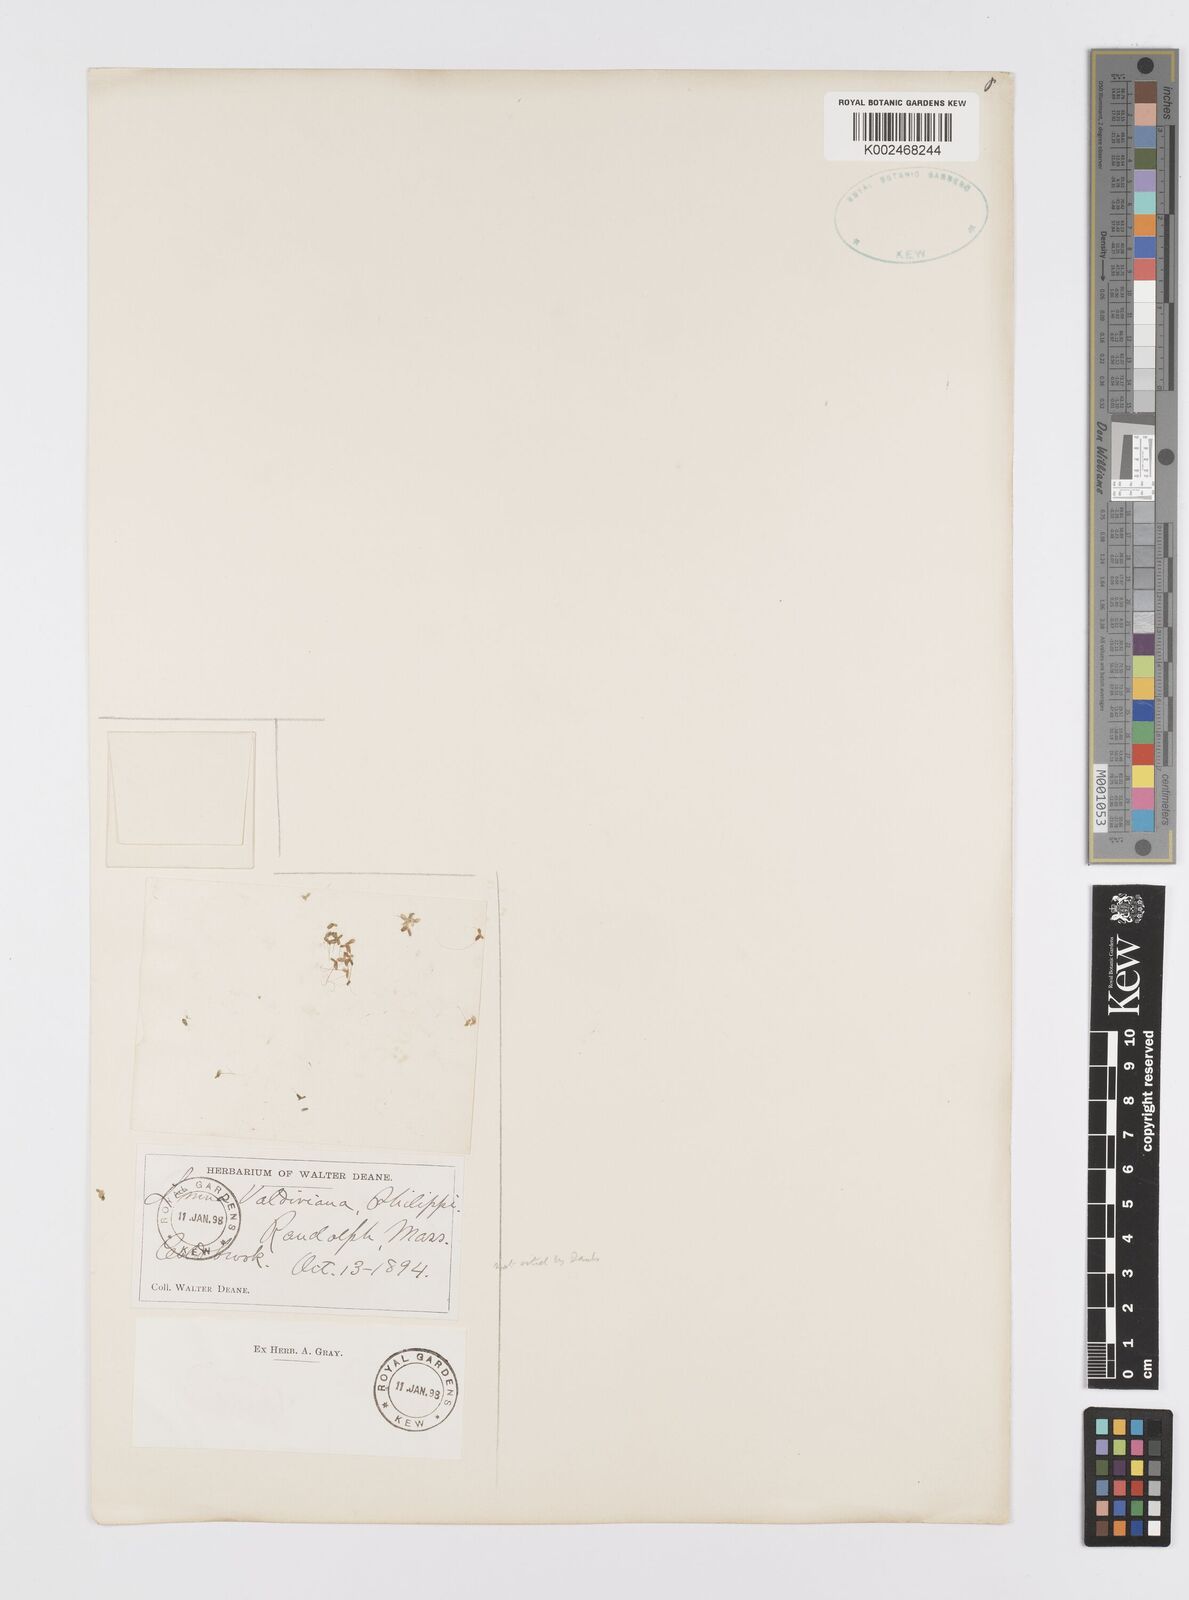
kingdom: Plantae
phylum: Tracheophyta
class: Liliopsida
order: Alismatales
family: Araceae
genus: Lemna
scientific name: Lemna valdiviana
